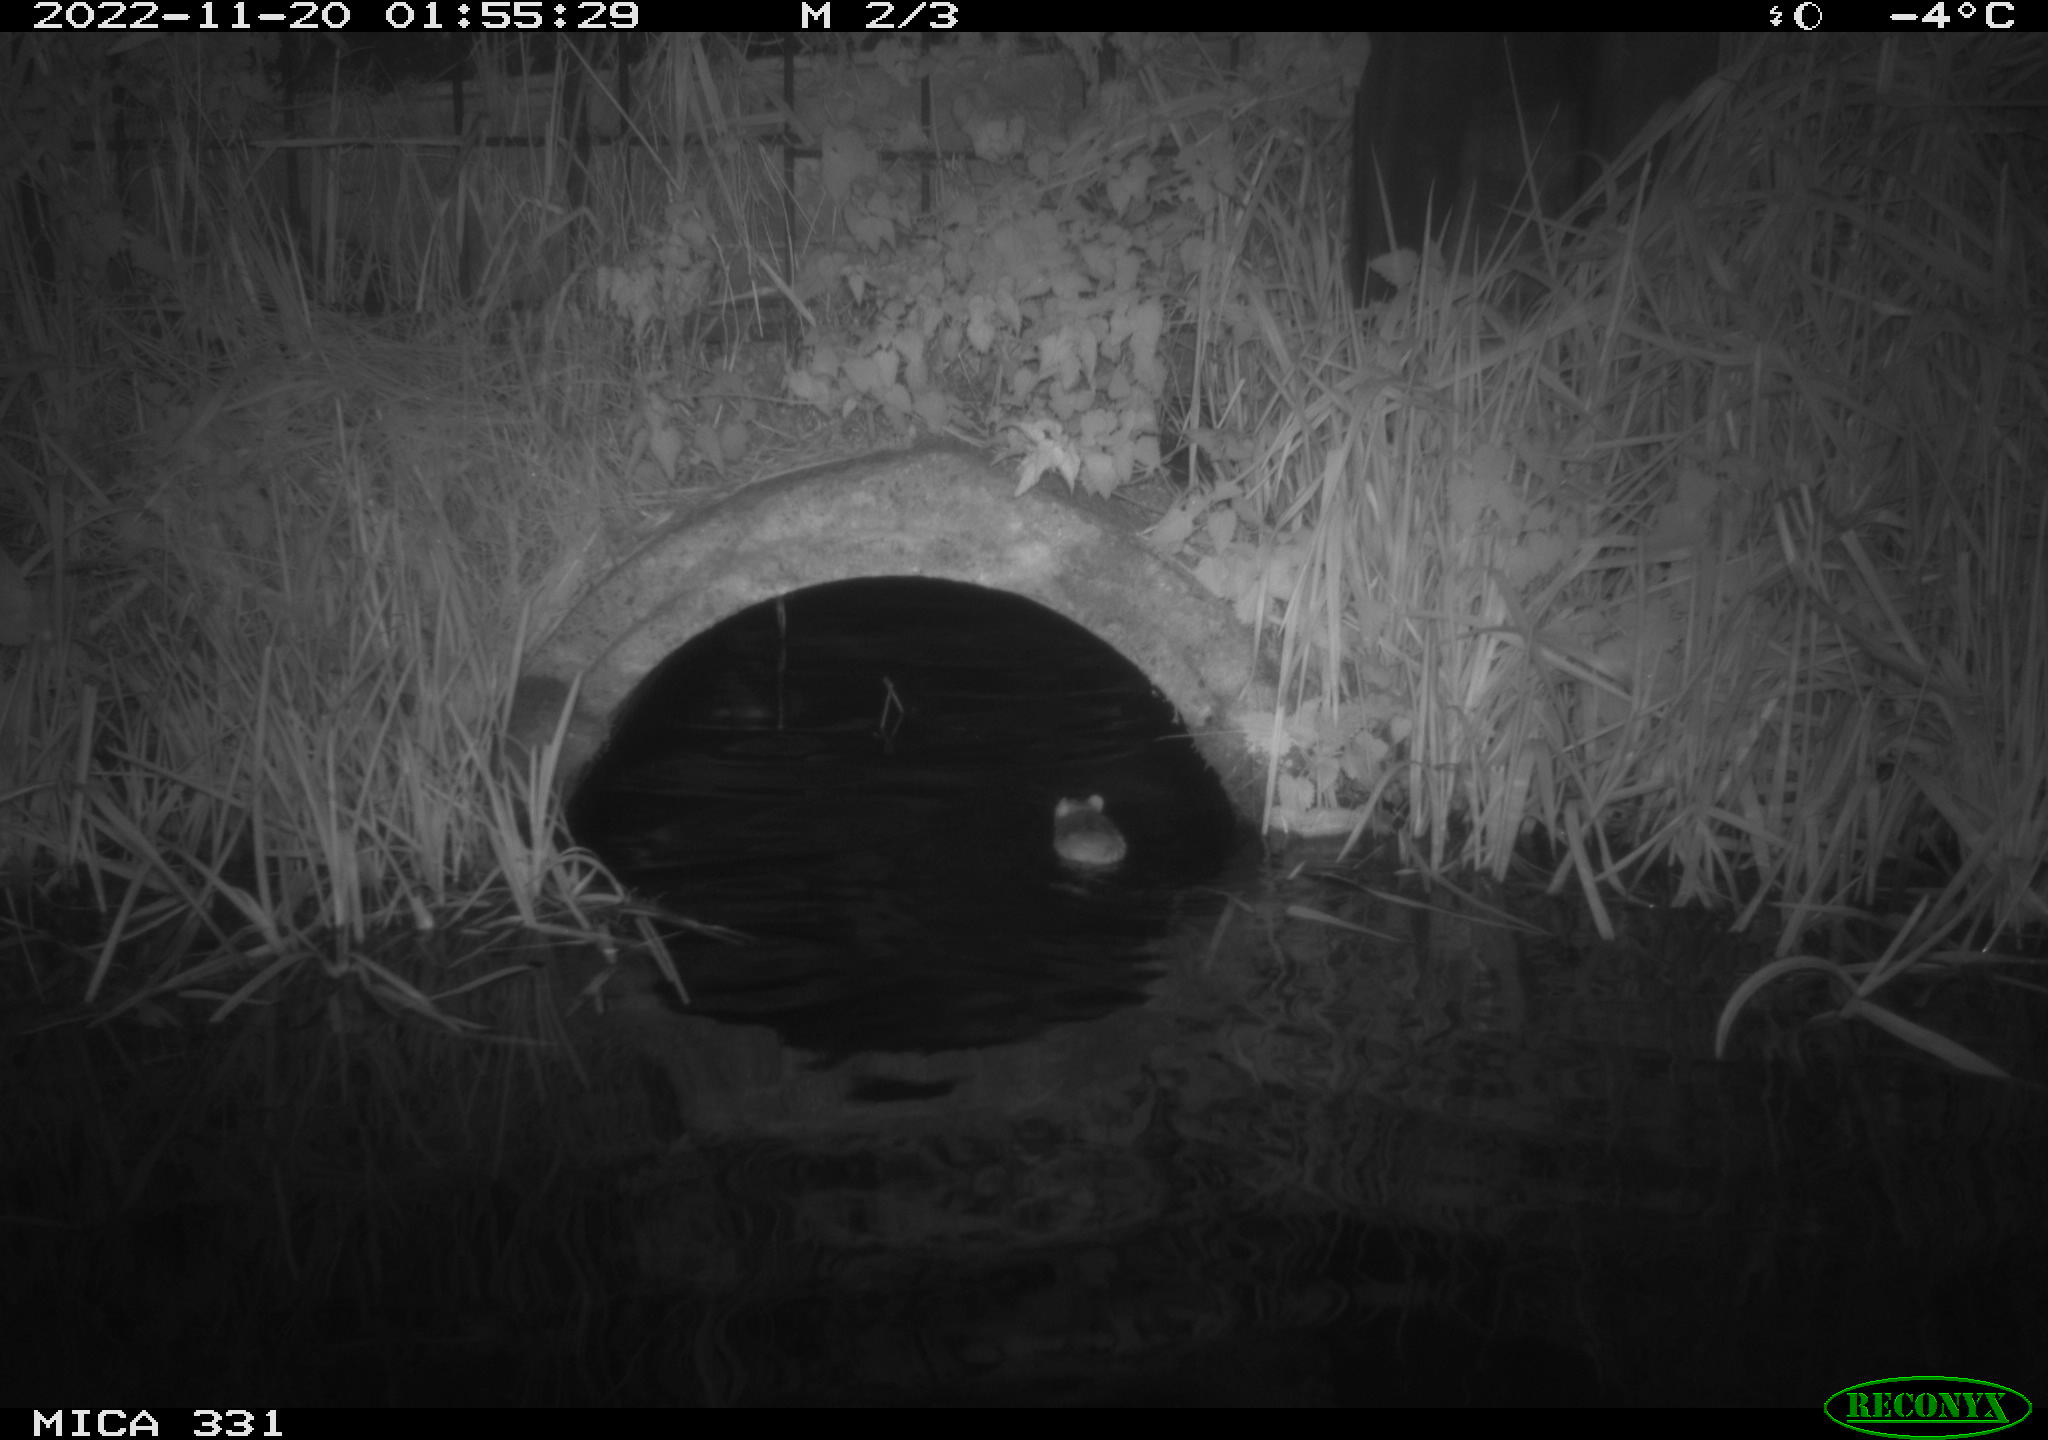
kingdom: Animalia
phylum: Chordata
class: Mammalia
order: Rodentia
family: Muridae
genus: Rattus
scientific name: Rattus norvegicus
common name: Brown rat
